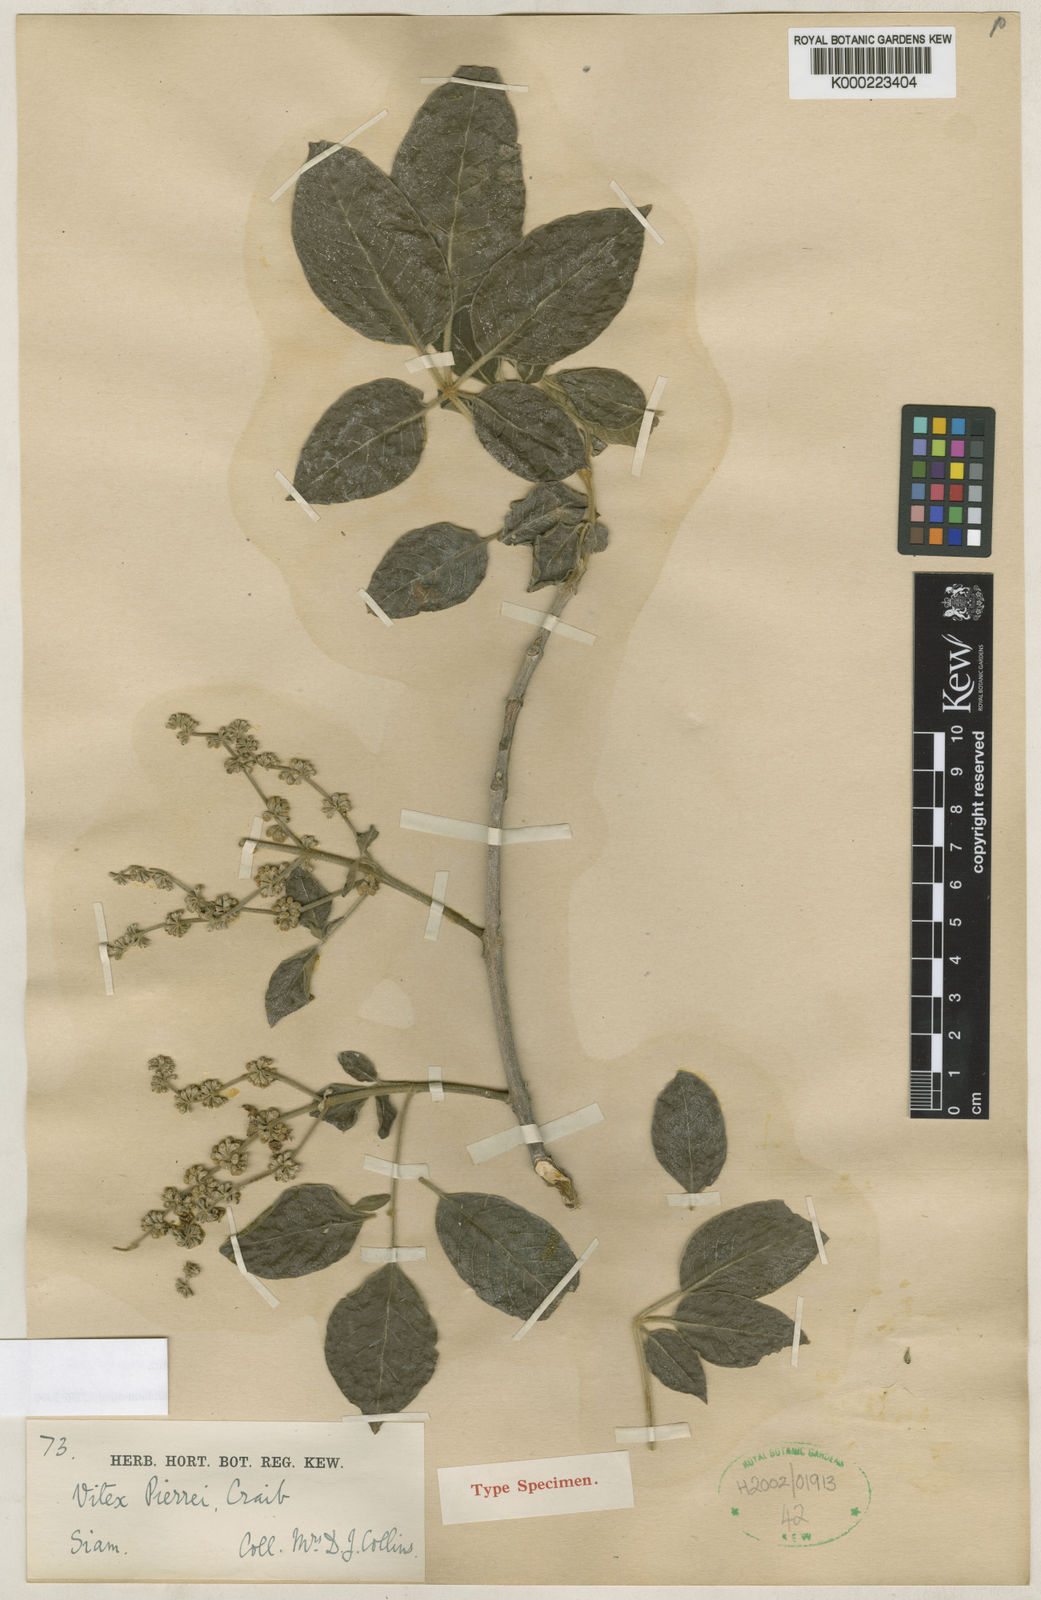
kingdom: Plantae
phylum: Tracheophyta
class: Magnoliopsida
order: Lamiales
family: Lamiaceae
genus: Vitex
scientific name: Vitex canescens
